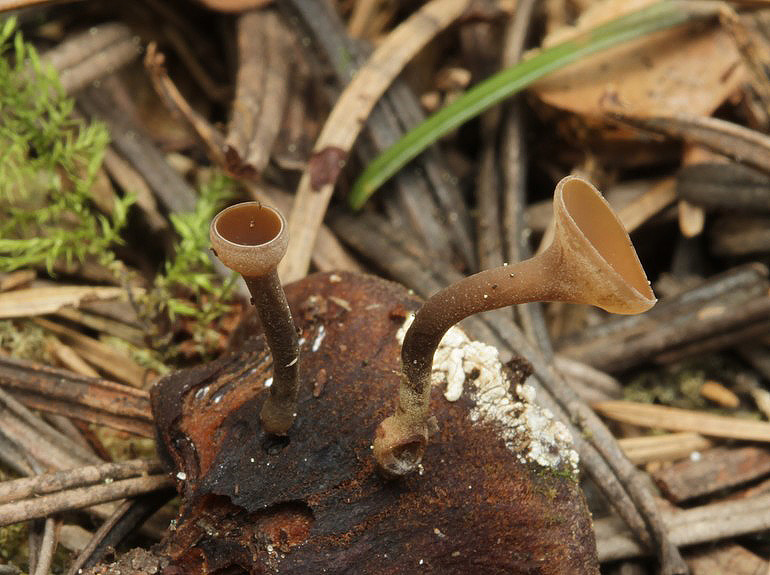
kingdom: Fungi
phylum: Ascomycota
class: Leotiomycetes
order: Helotiales
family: Sclerotiniaceae
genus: Ciboria
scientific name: Ciboria rufofusca
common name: kogleskæl-knoldskive
